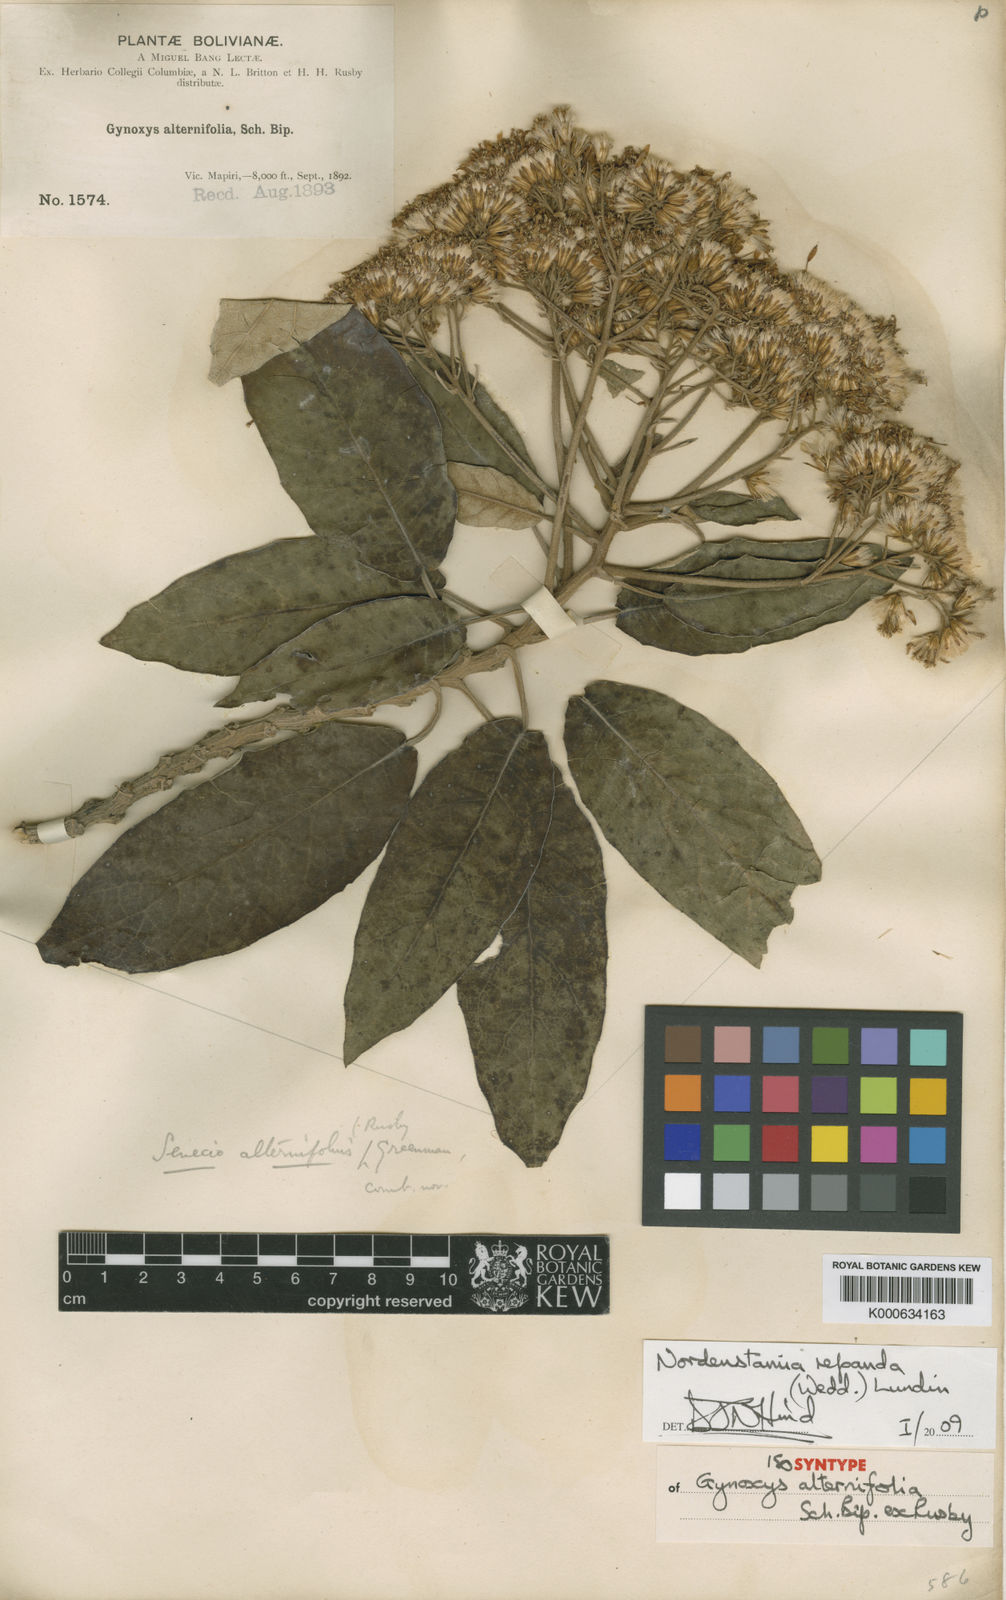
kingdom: Plantae
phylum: Tracheophyta
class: Magnoliopsida
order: Asterales
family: Asteraceae
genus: Nordenstamia
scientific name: Nordenstamia repanda
